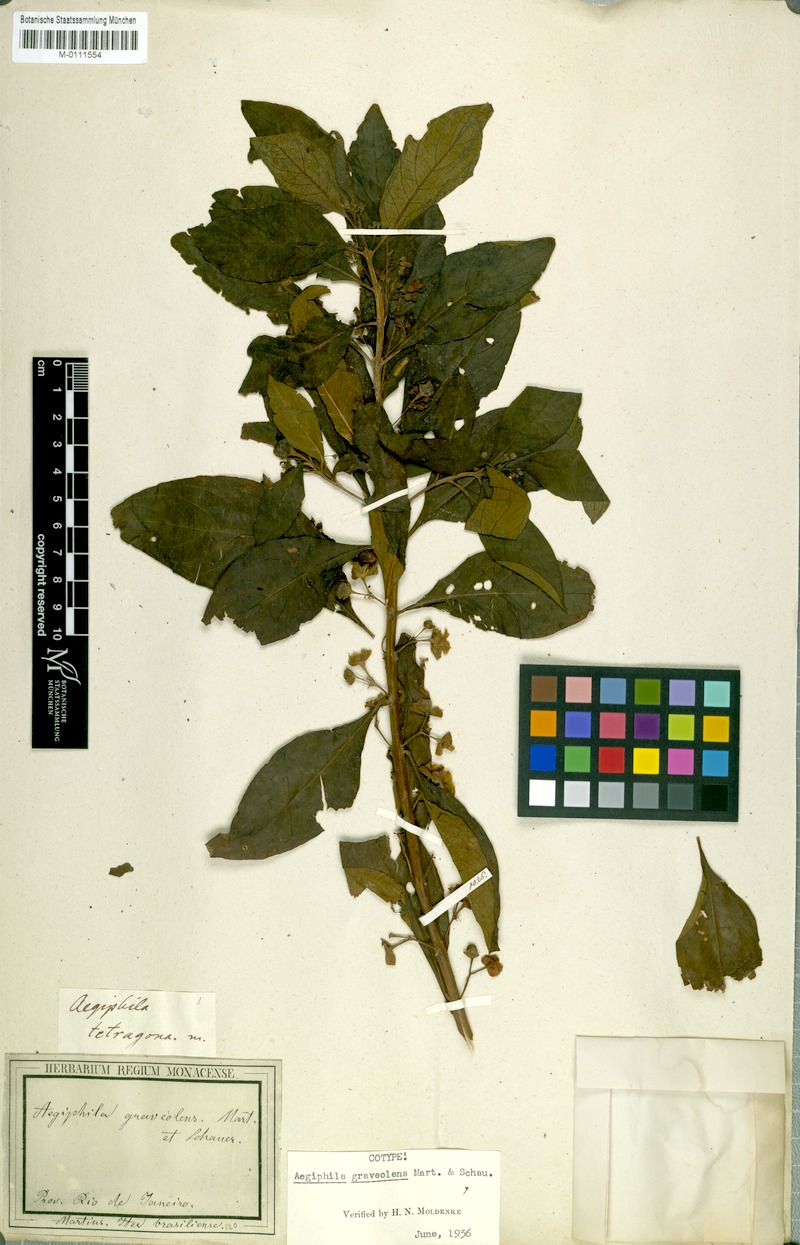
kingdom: Plantae
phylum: Tracheophyta
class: Magnoliopsida
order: Lamiales
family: Lamiaceae
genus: Aegiphila
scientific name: Aegiphila graveolens
